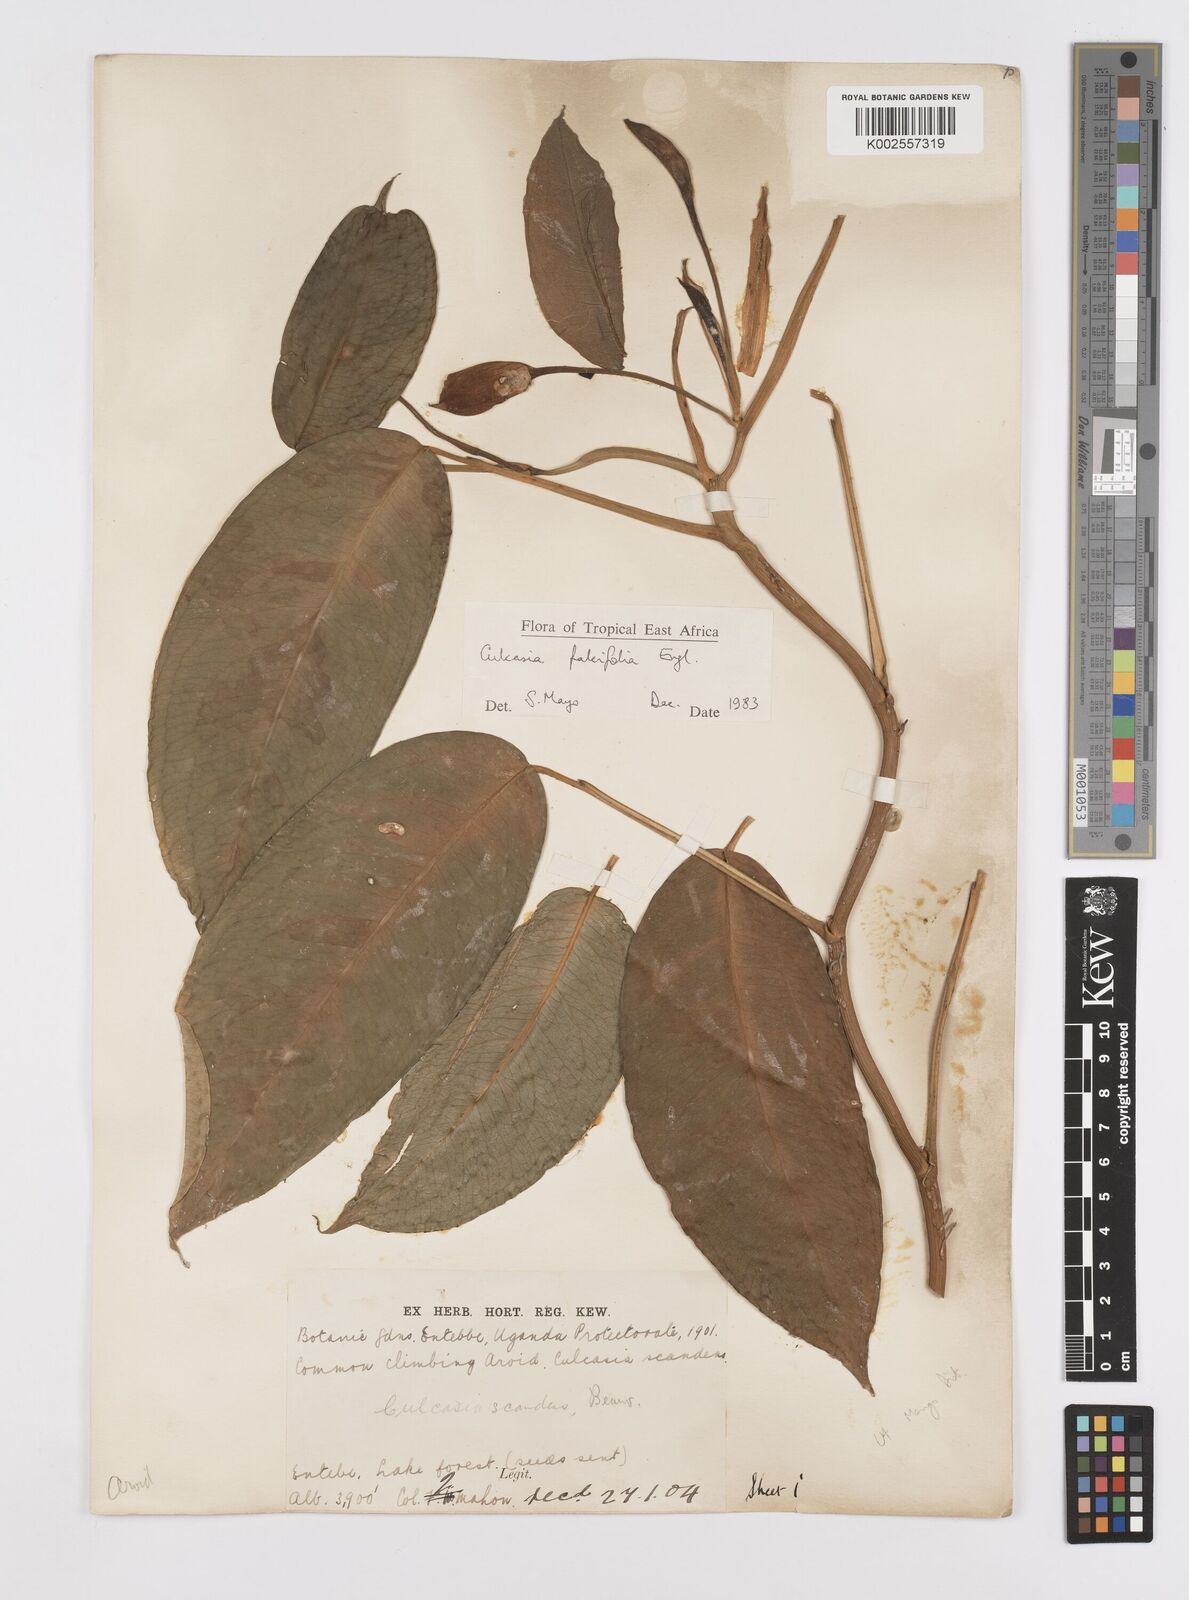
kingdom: Plantae
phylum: Tracheophyta
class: Liliopsida
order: Alismatales
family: Araceae
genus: Culcasia
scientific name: Culcasia falcifolia
